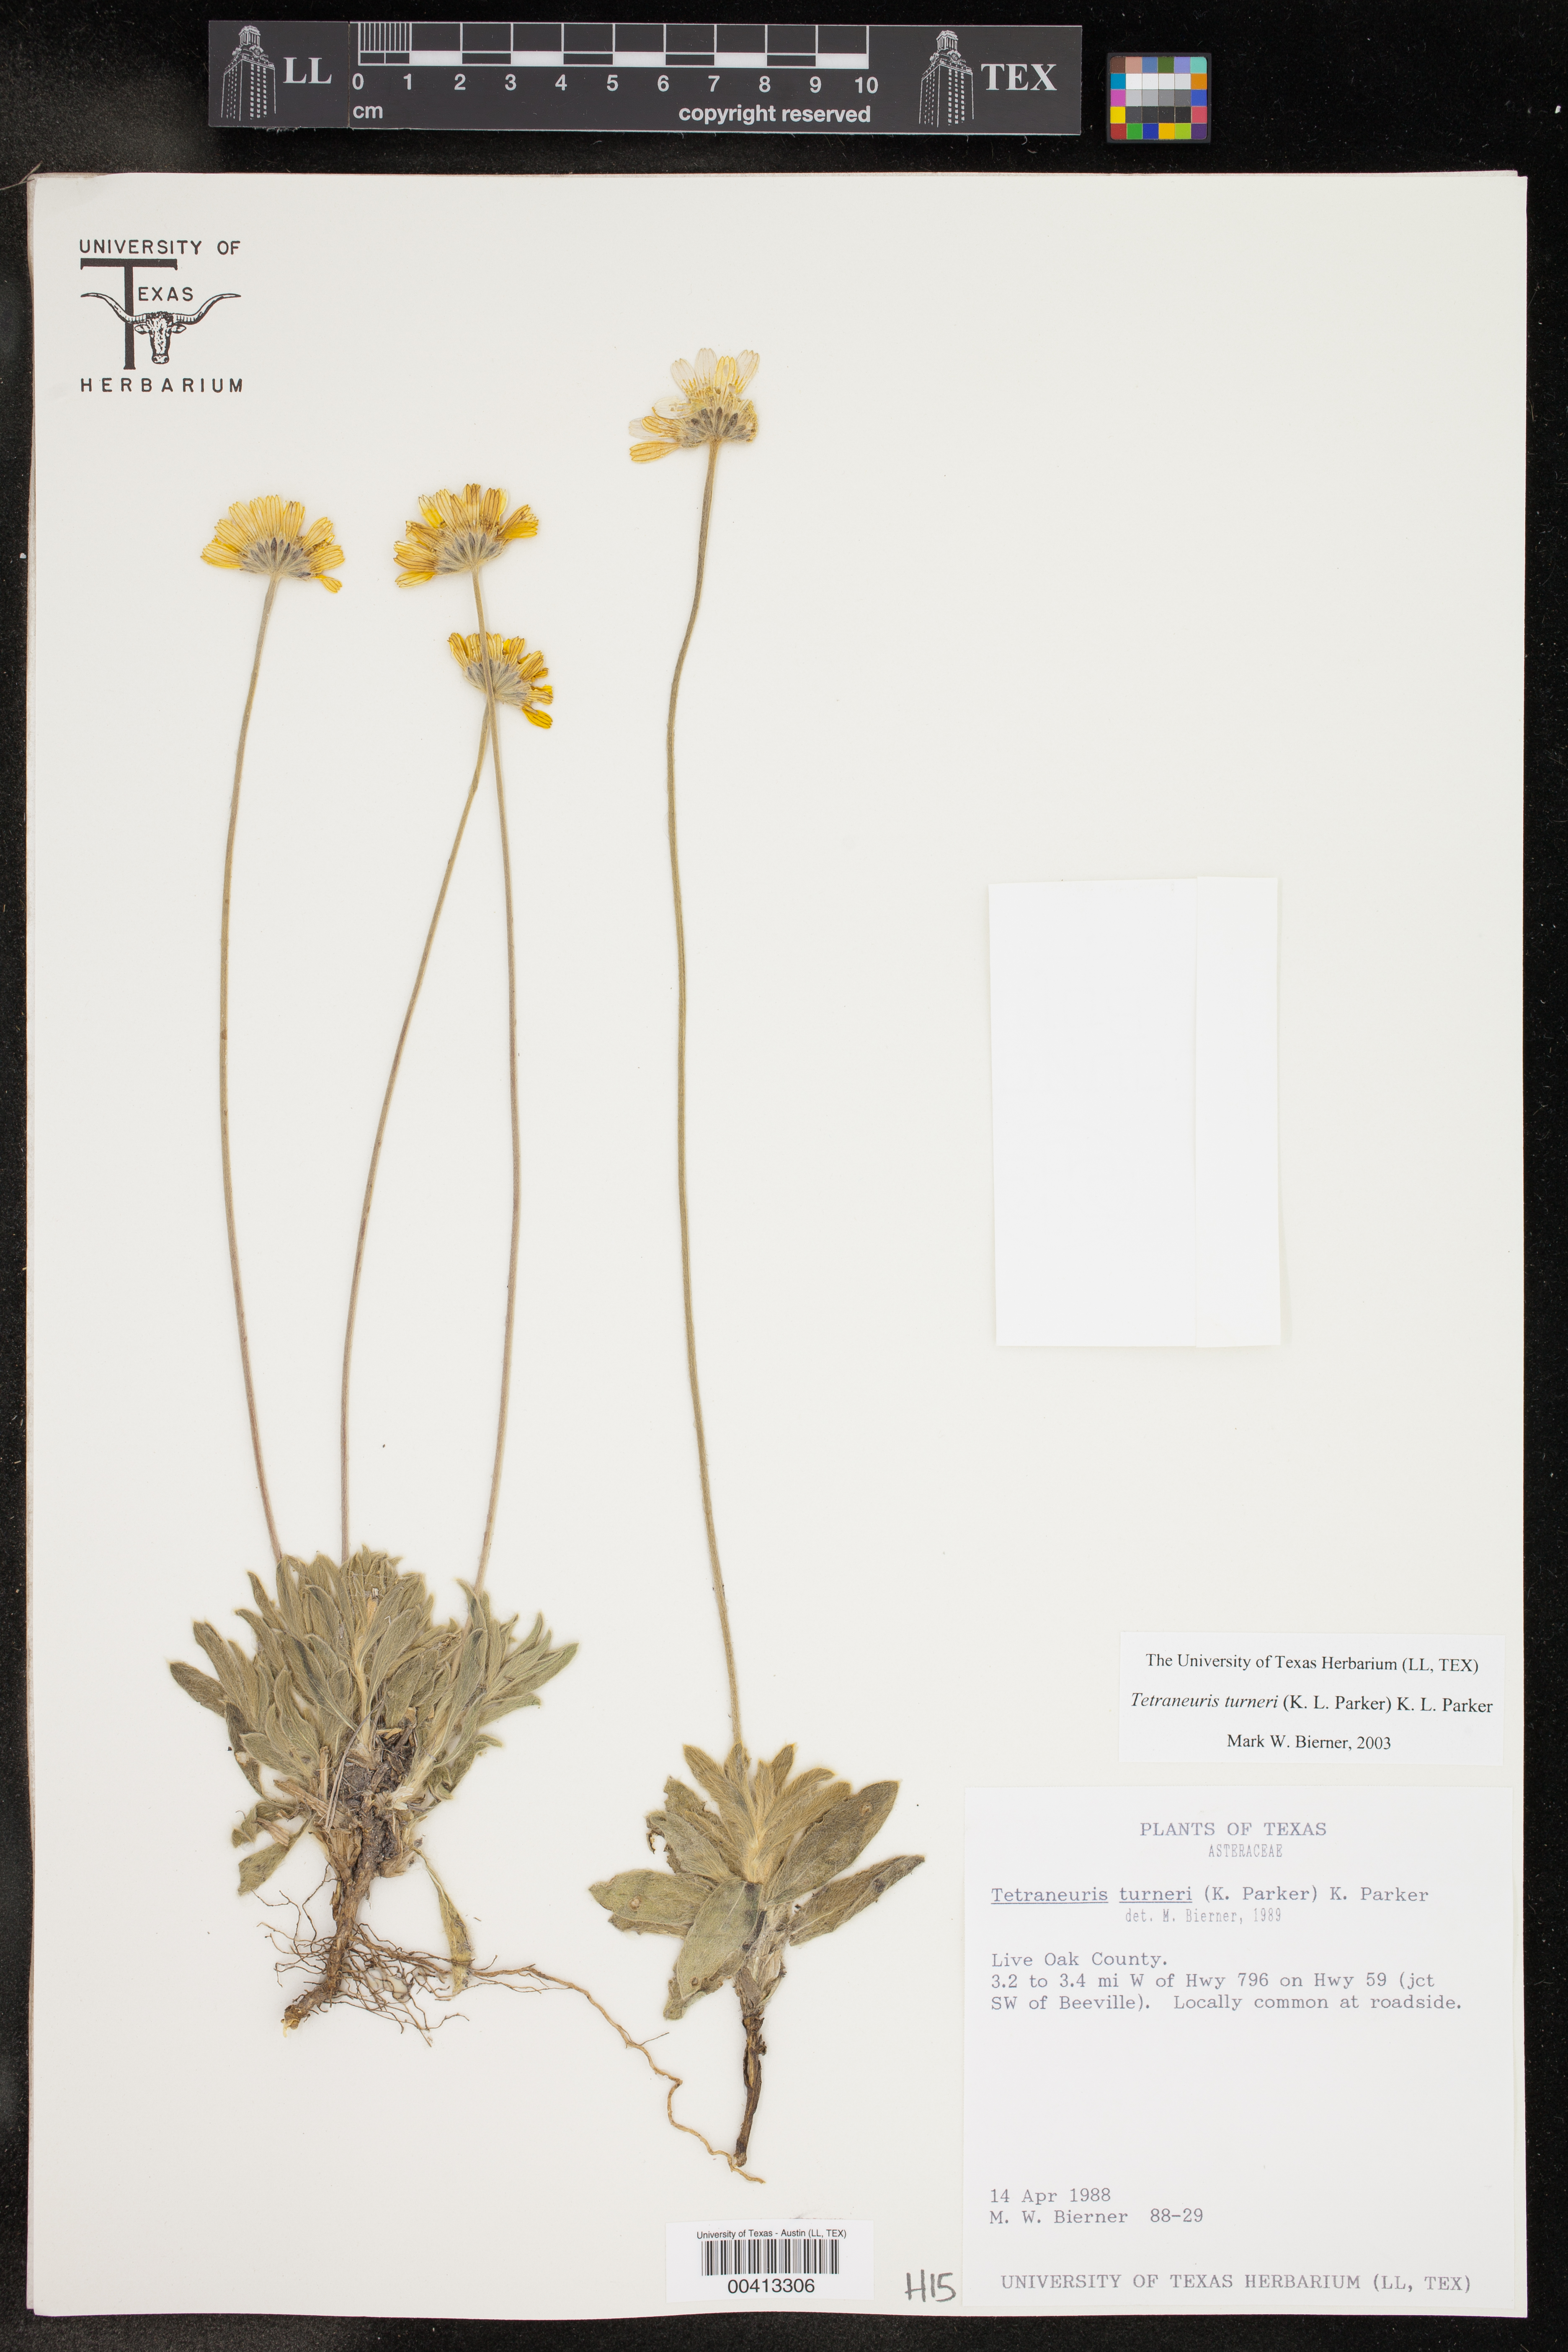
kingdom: Plantae
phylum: Tracheophyta
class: Magnoliopsida
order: Asterales
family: Asteraceae
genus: Tetraneuris
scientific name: Tetraneuris turneri
